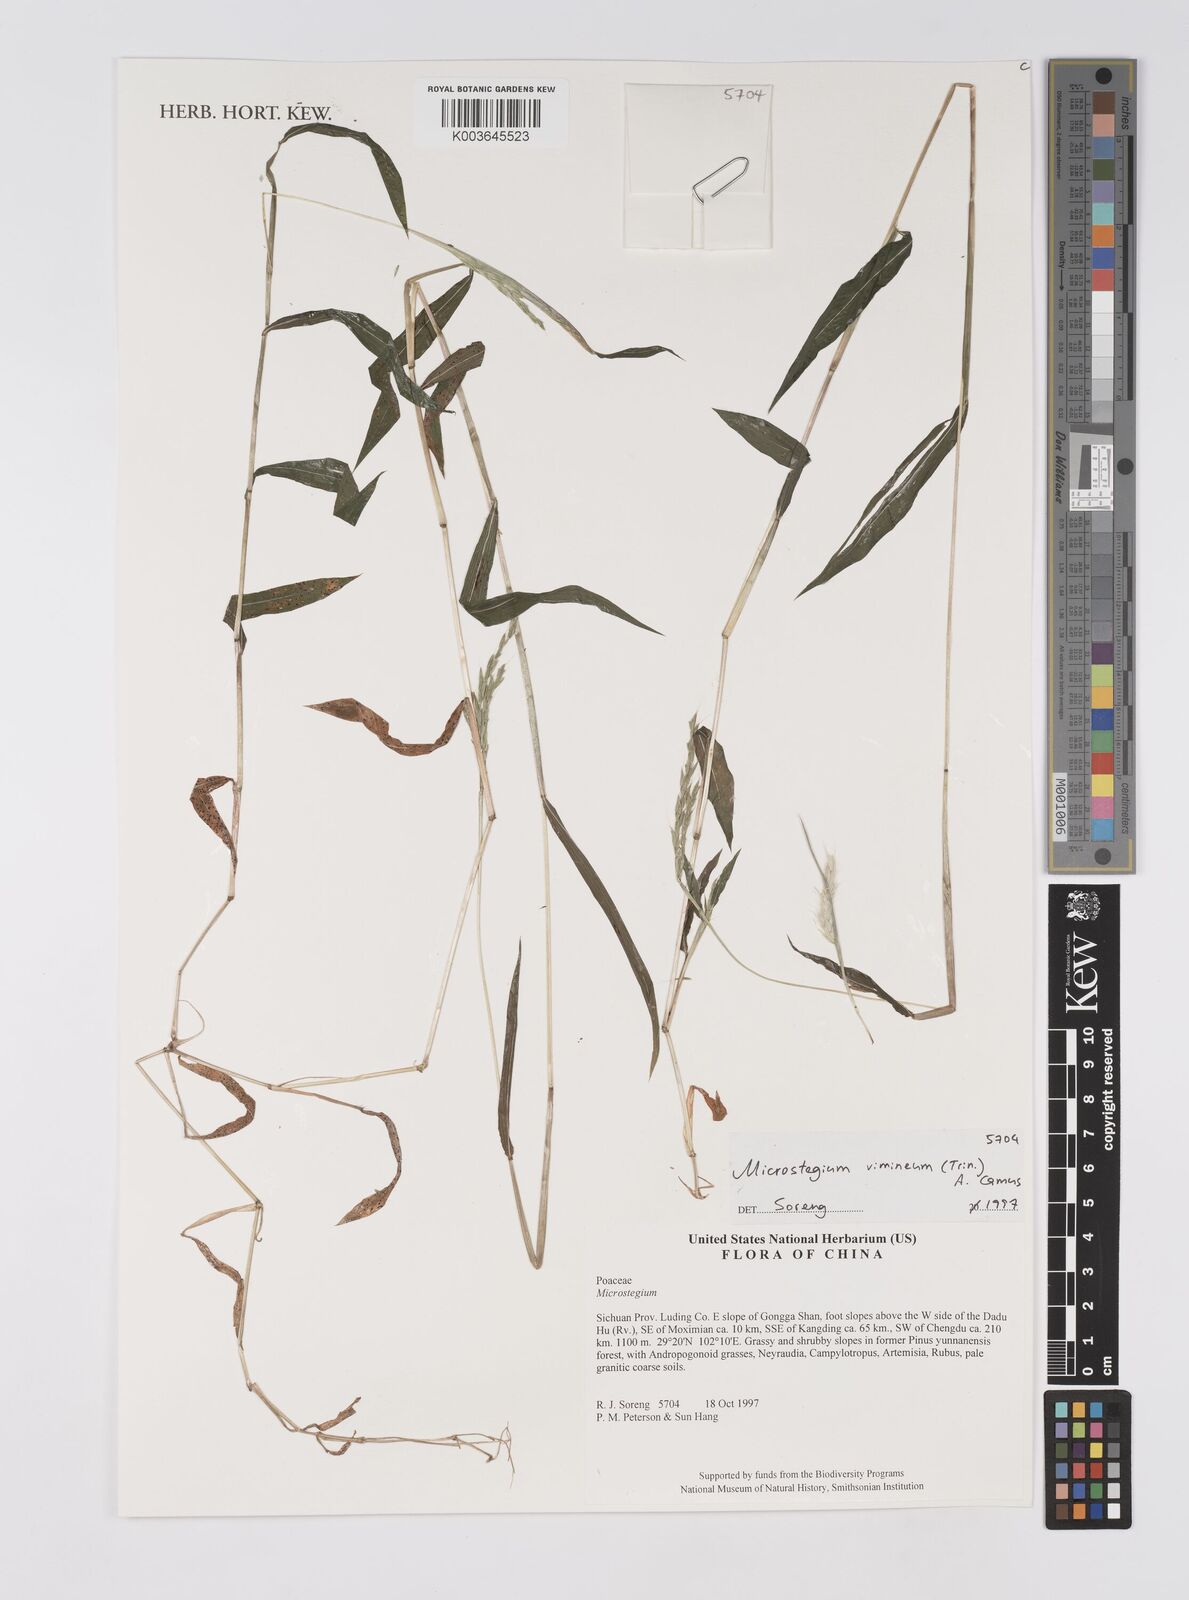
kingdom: Plantae
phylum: Tracheophyta
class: Liliopsida
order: Poales
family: Poaceae
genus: Microstegium
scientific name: Microstegium vimineum
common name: Japanese stiltgrass
